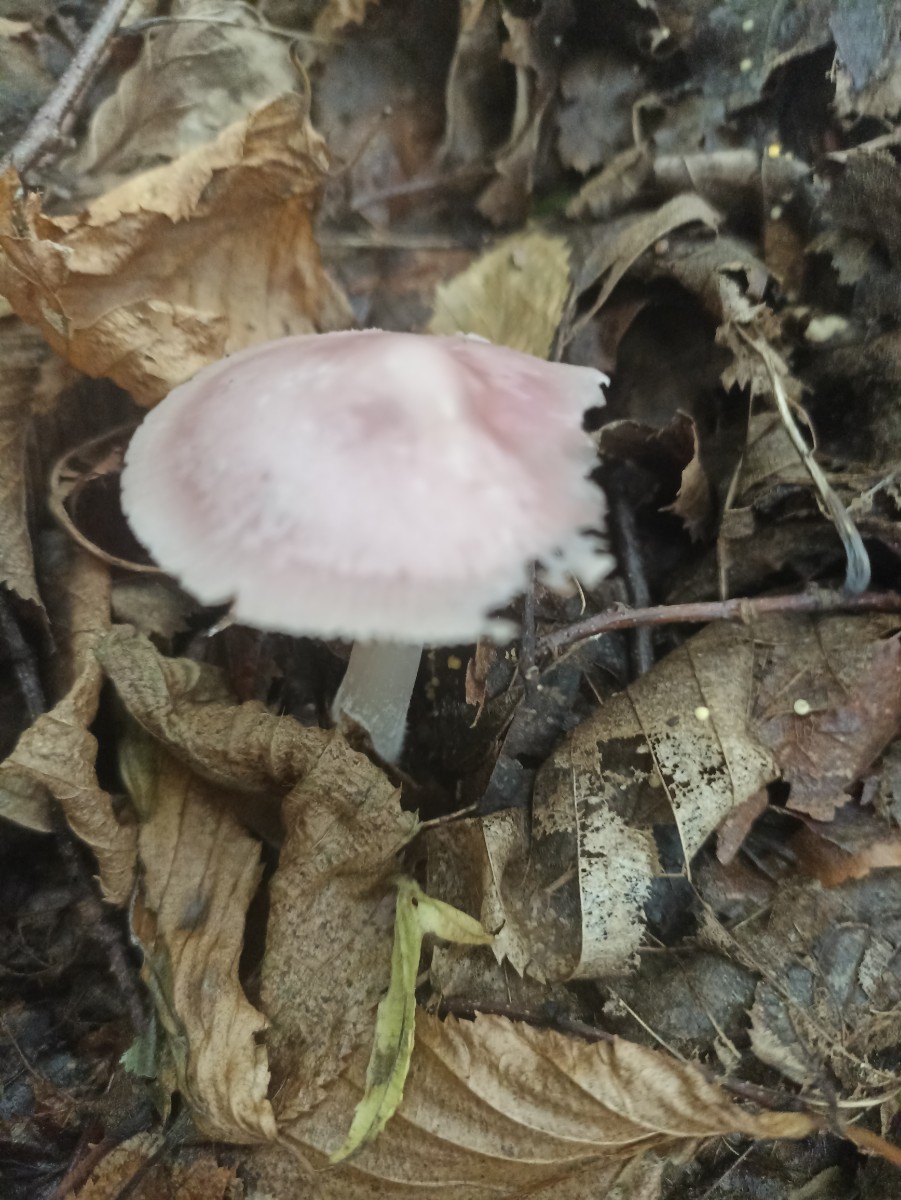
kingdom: Fungi
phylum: Basidiomycota
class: Agaricomycetes
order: Agaricales
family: Mycenaceae
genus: Mycena
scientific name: Mycena rosea
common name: rosa huesvamp
